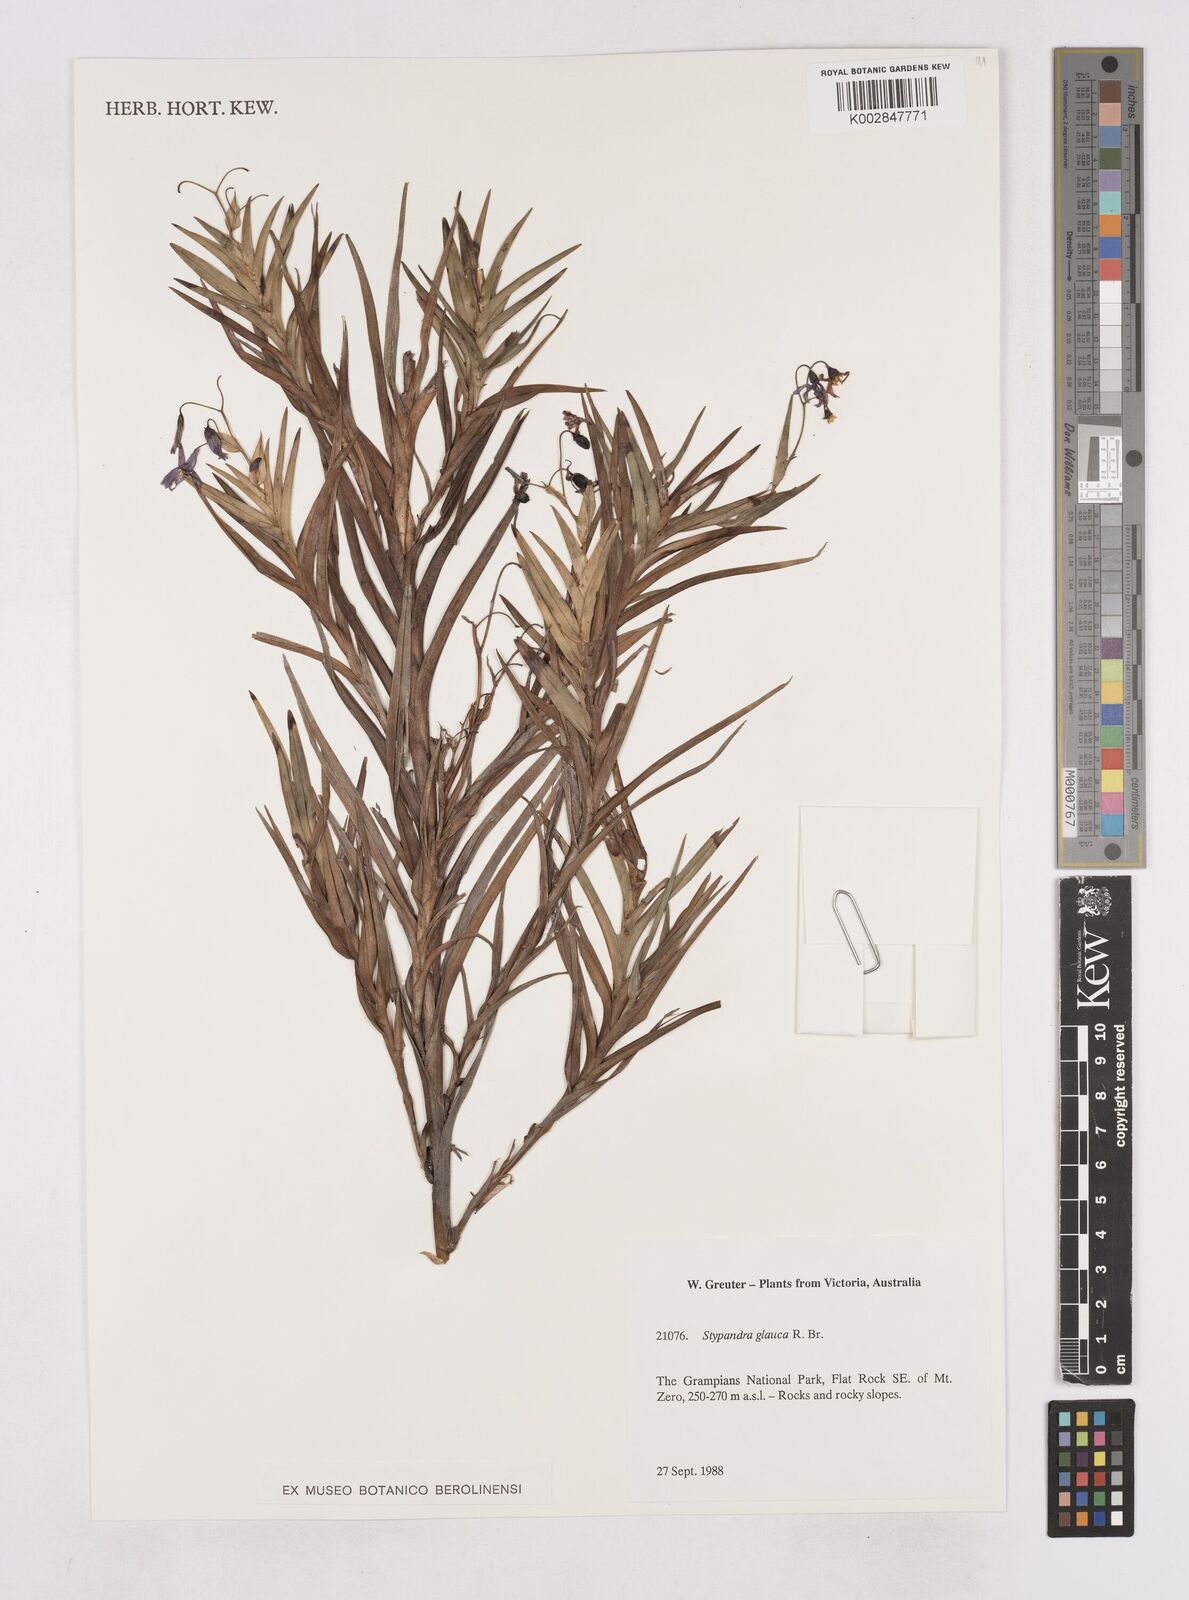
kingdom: Plantae
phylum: Tracheophyta
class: Liliopsida
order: Asparagales
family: Asphodelaceae
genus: Stypandra
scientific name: Stypandra glauca
